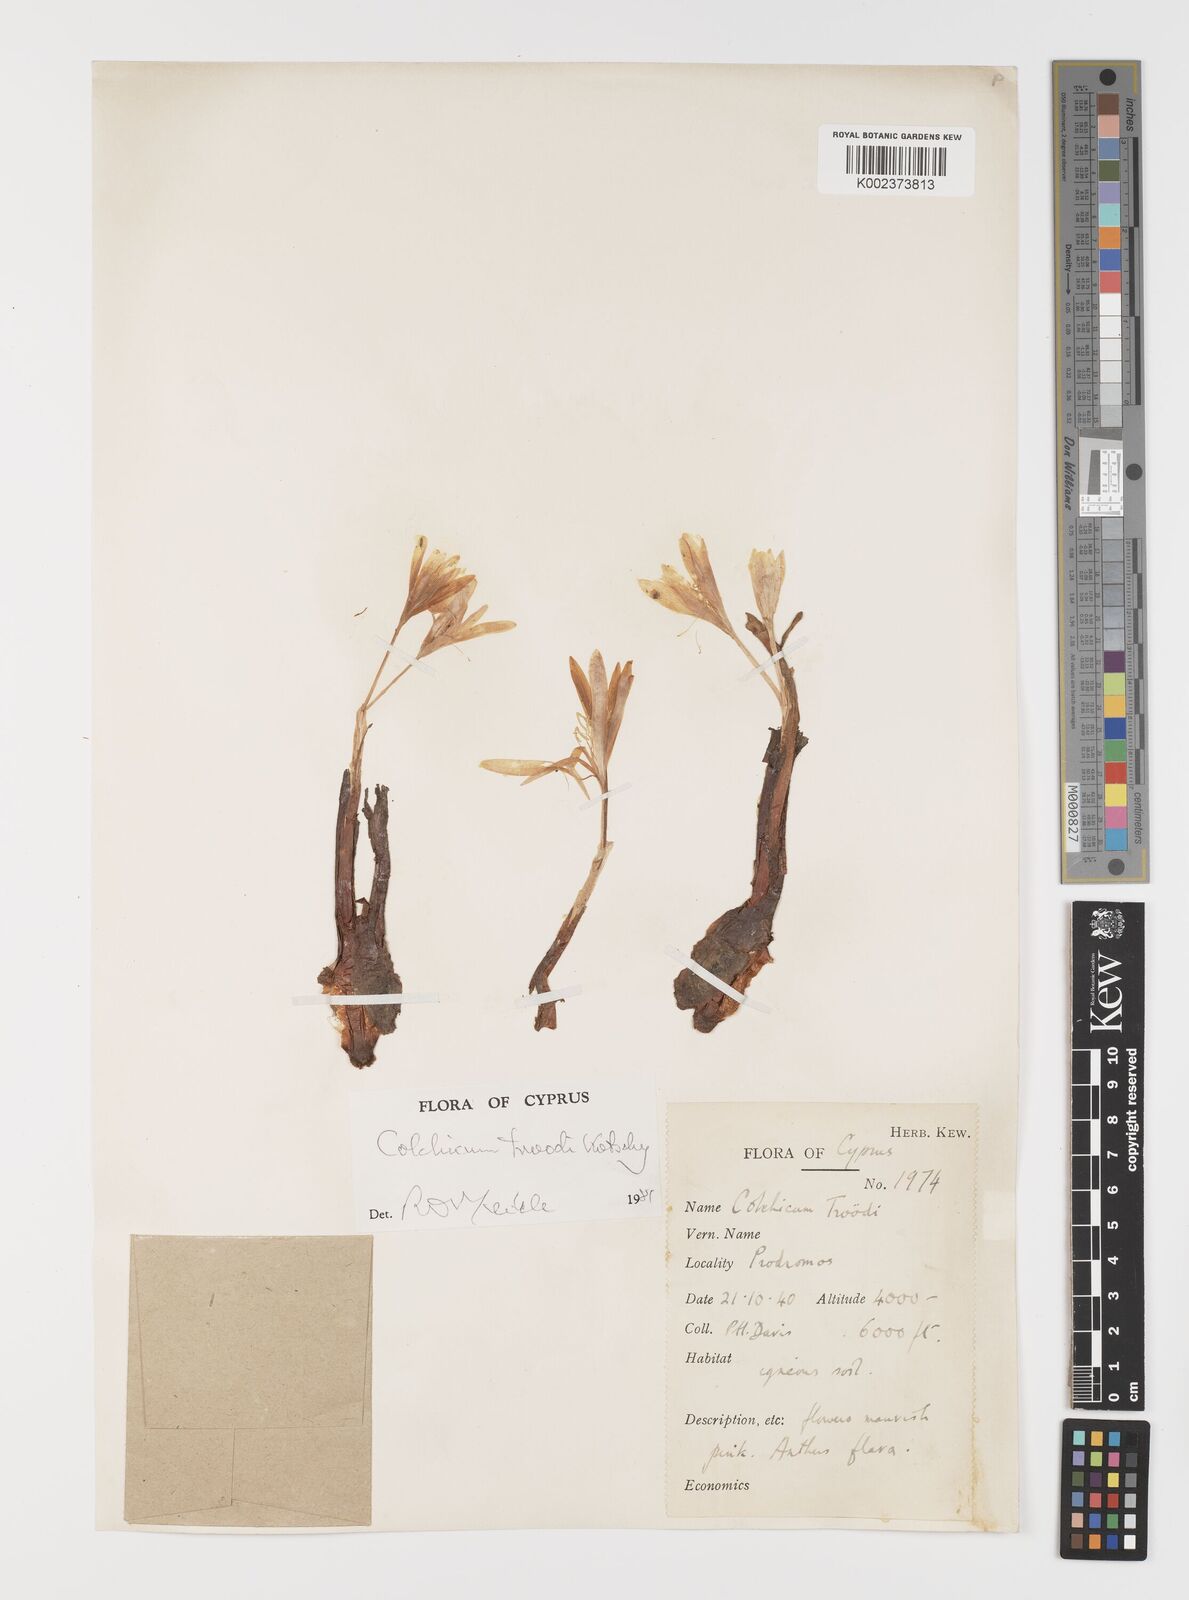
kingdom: Plantae
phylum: Tracheophyta
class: Liliopsida
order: Liliales
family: Colchicaceae
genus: Colchicum
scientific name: Colchicum troodi
